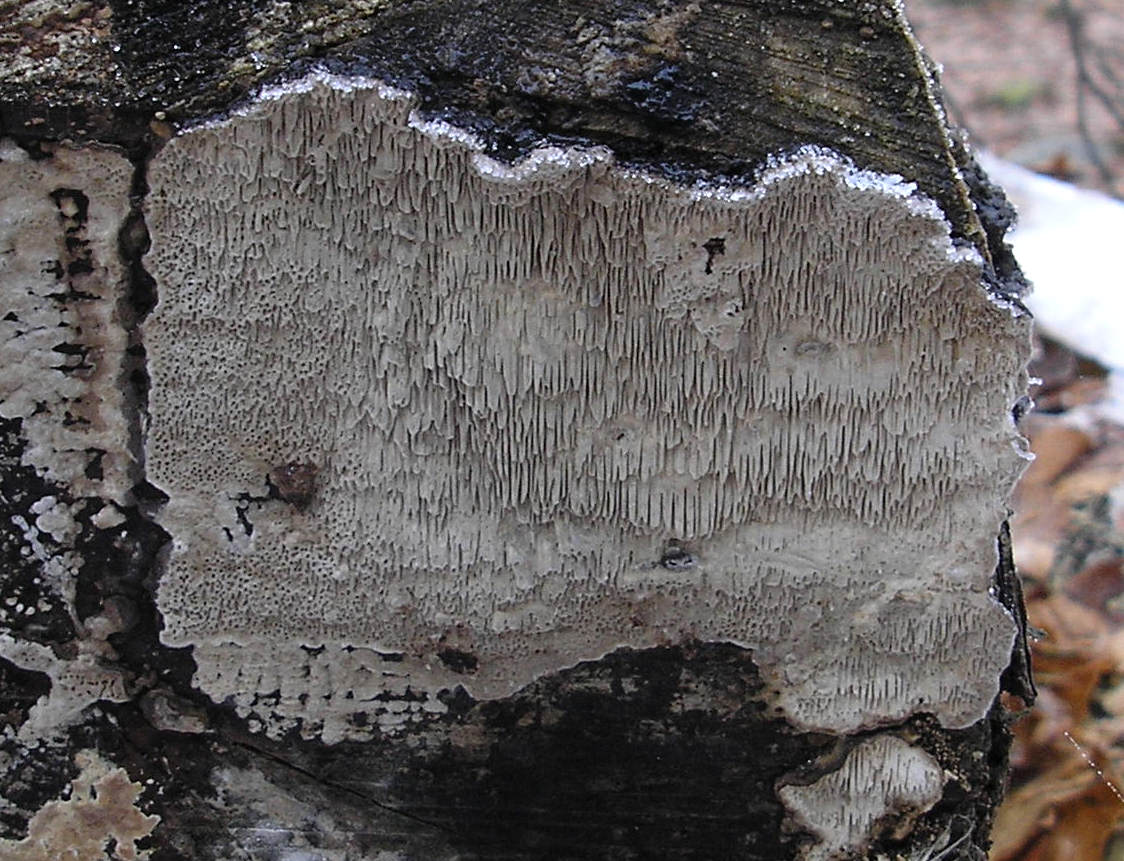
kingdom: Fungi
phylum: Basidiomycota
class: Agaricomycetes
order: Polyporales
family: Polyporaceae
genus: Podofomes
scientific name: Podofomes mollis
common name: blød begporesvamp
